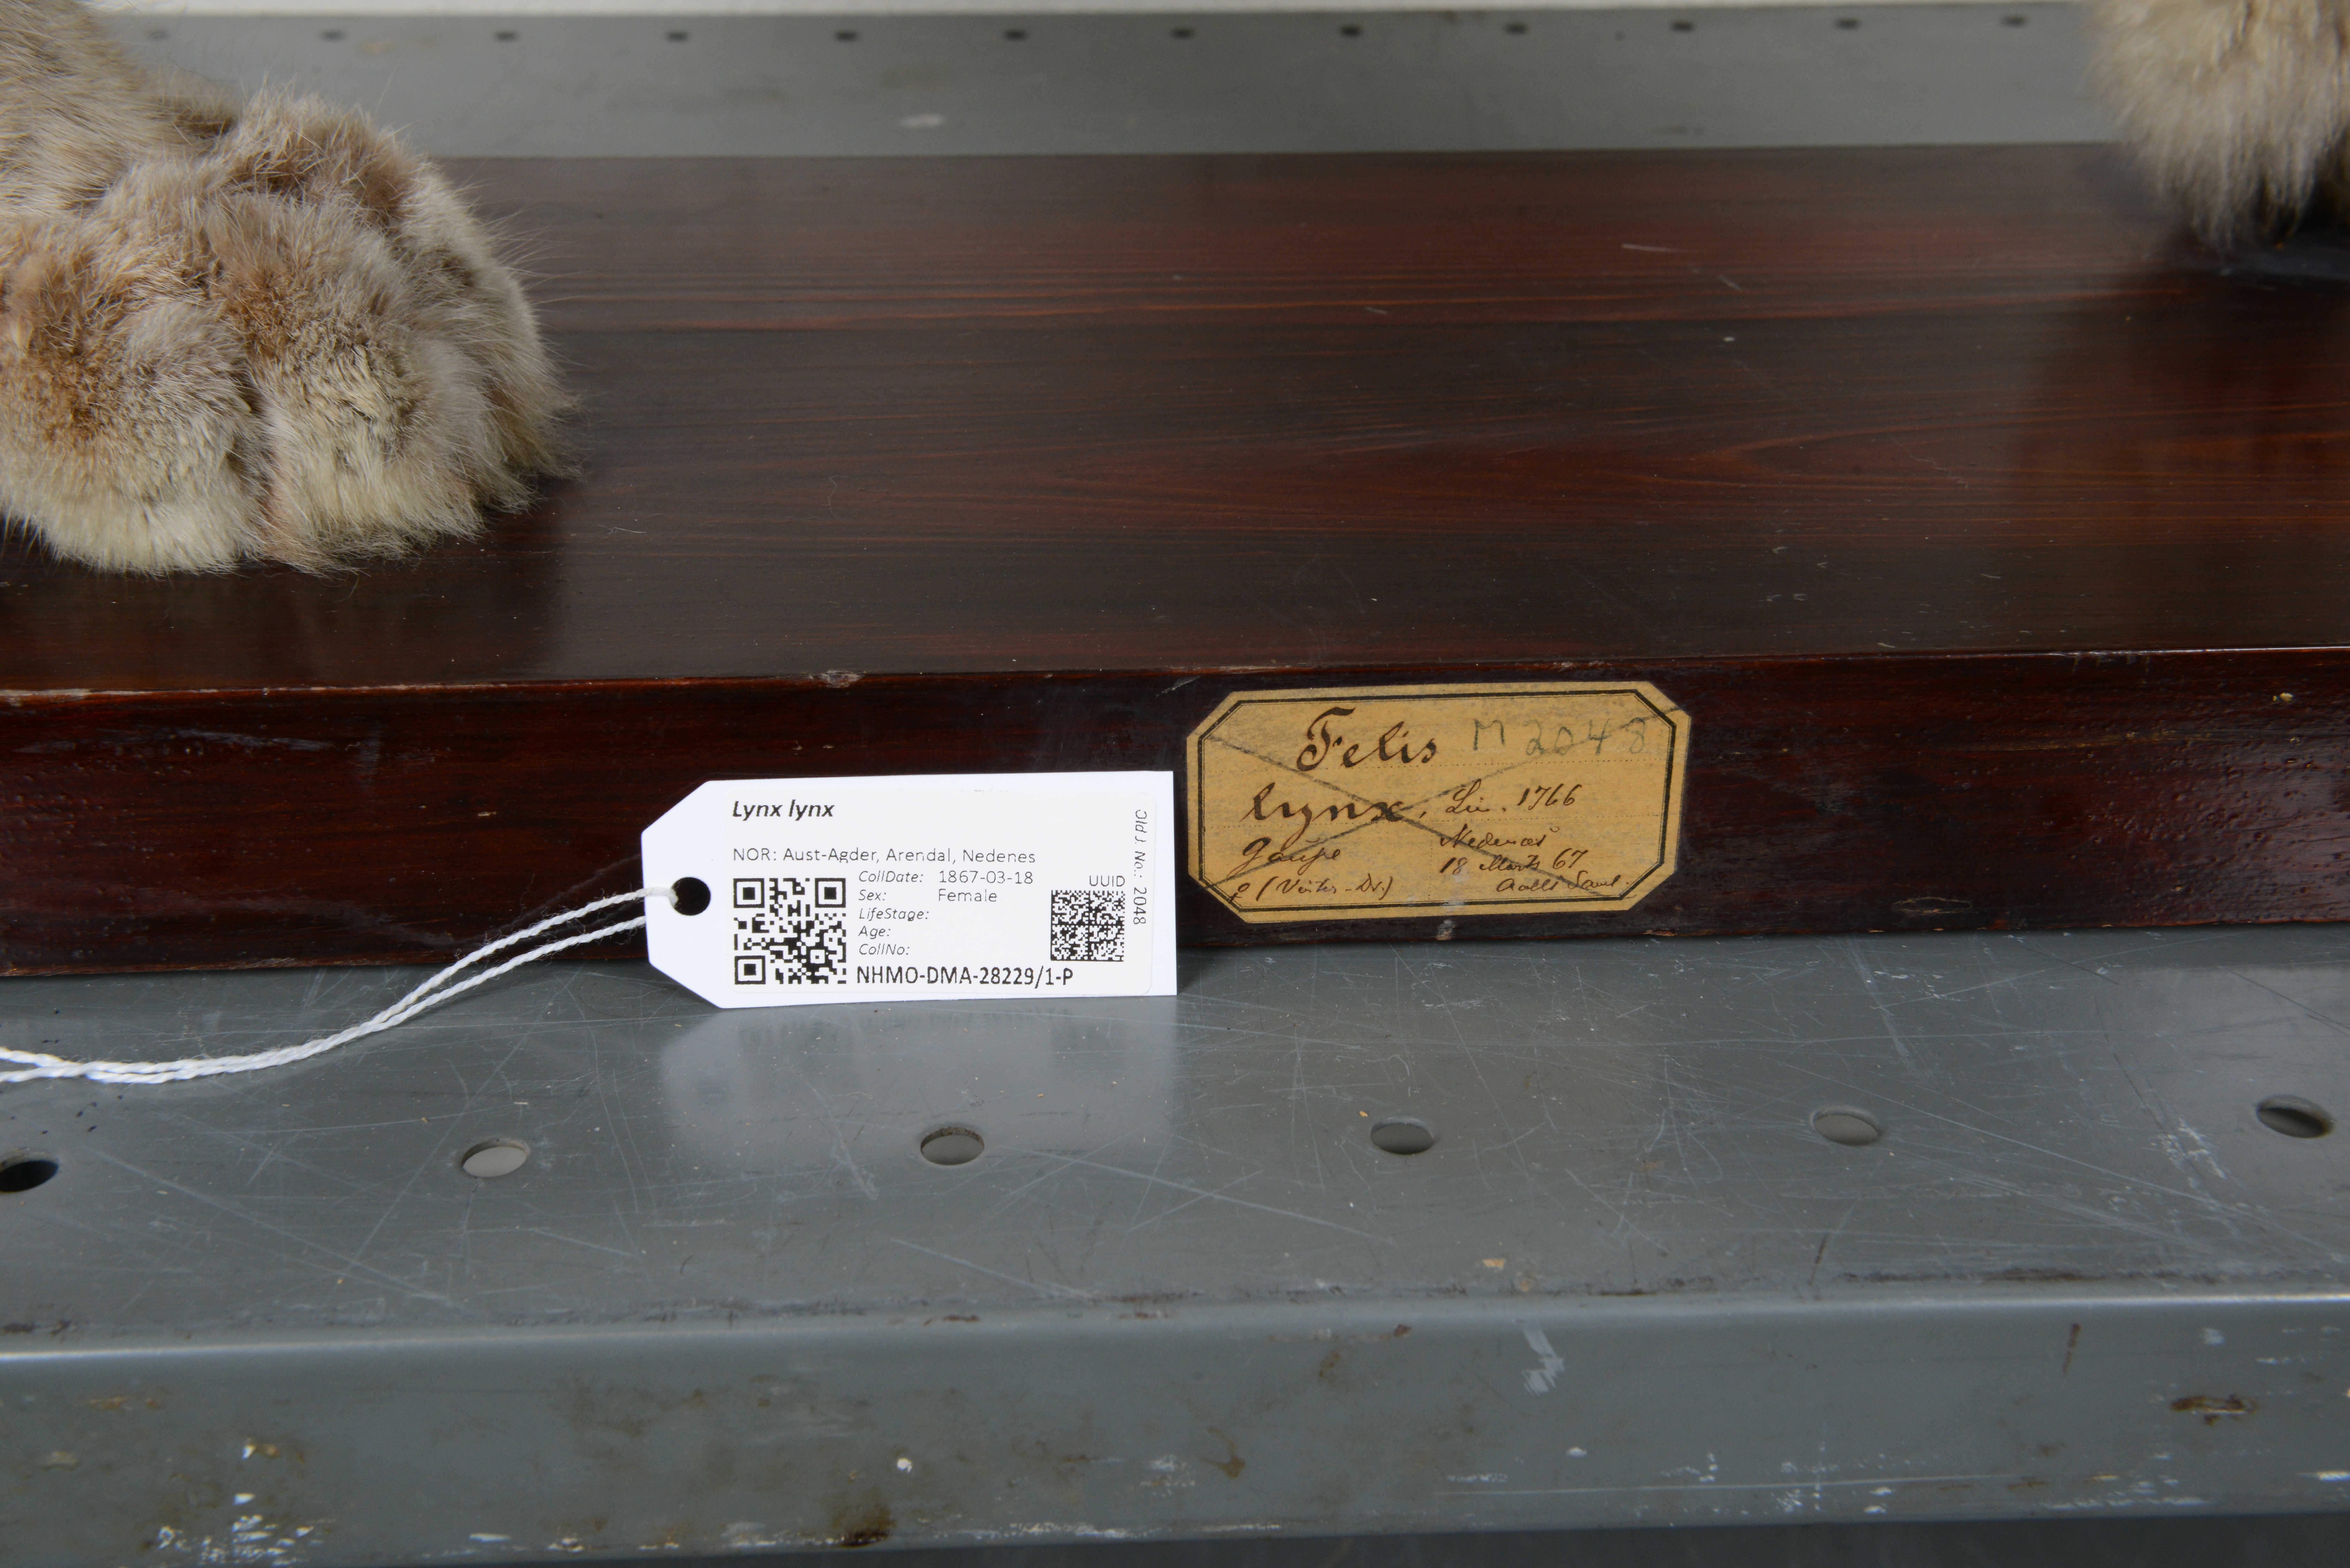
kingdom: Animalia
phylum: Chordata
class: Mammalia
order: Carnivora
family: Felidae
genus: Lynx
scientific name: Lynx lynx
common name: Eurasian lynx
